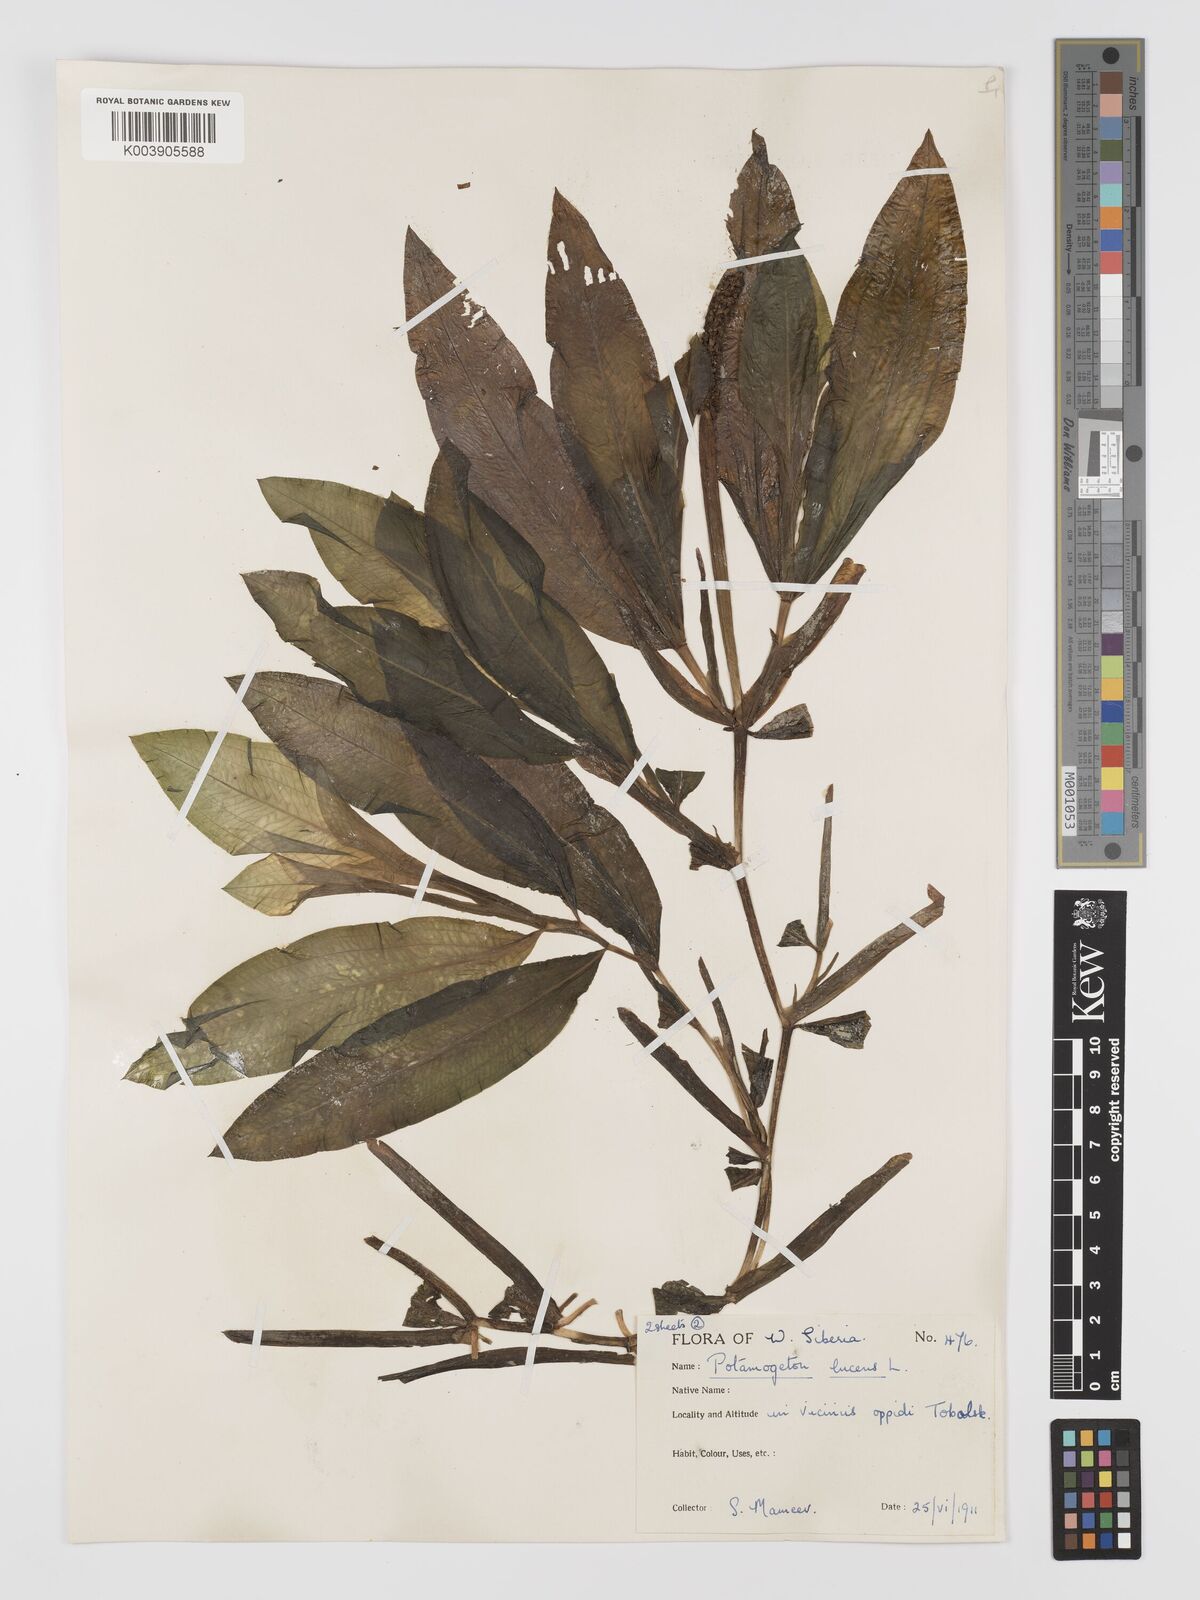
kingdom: Plantae
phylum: Tracheophyta
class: Liliopsida
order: Alismatales
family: Potamogetonaceae
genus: Potamogeton
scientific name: Potamogeton lucens
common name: Shining pondweed
